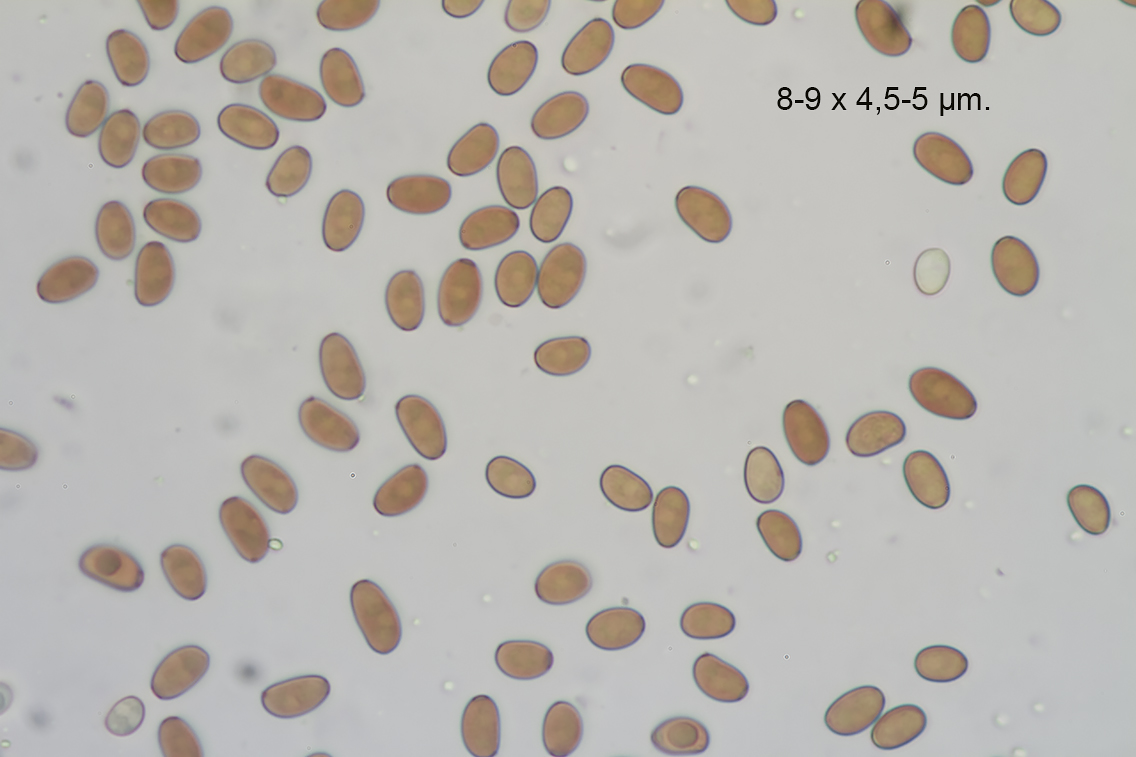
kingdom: Fungi
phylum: Basidiomycota
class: Agaricomycetes
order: Agaricales
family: Psathyrellaceae
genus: Coprinellus
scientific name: Coprinellus domesticus
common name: hus-blækhat
